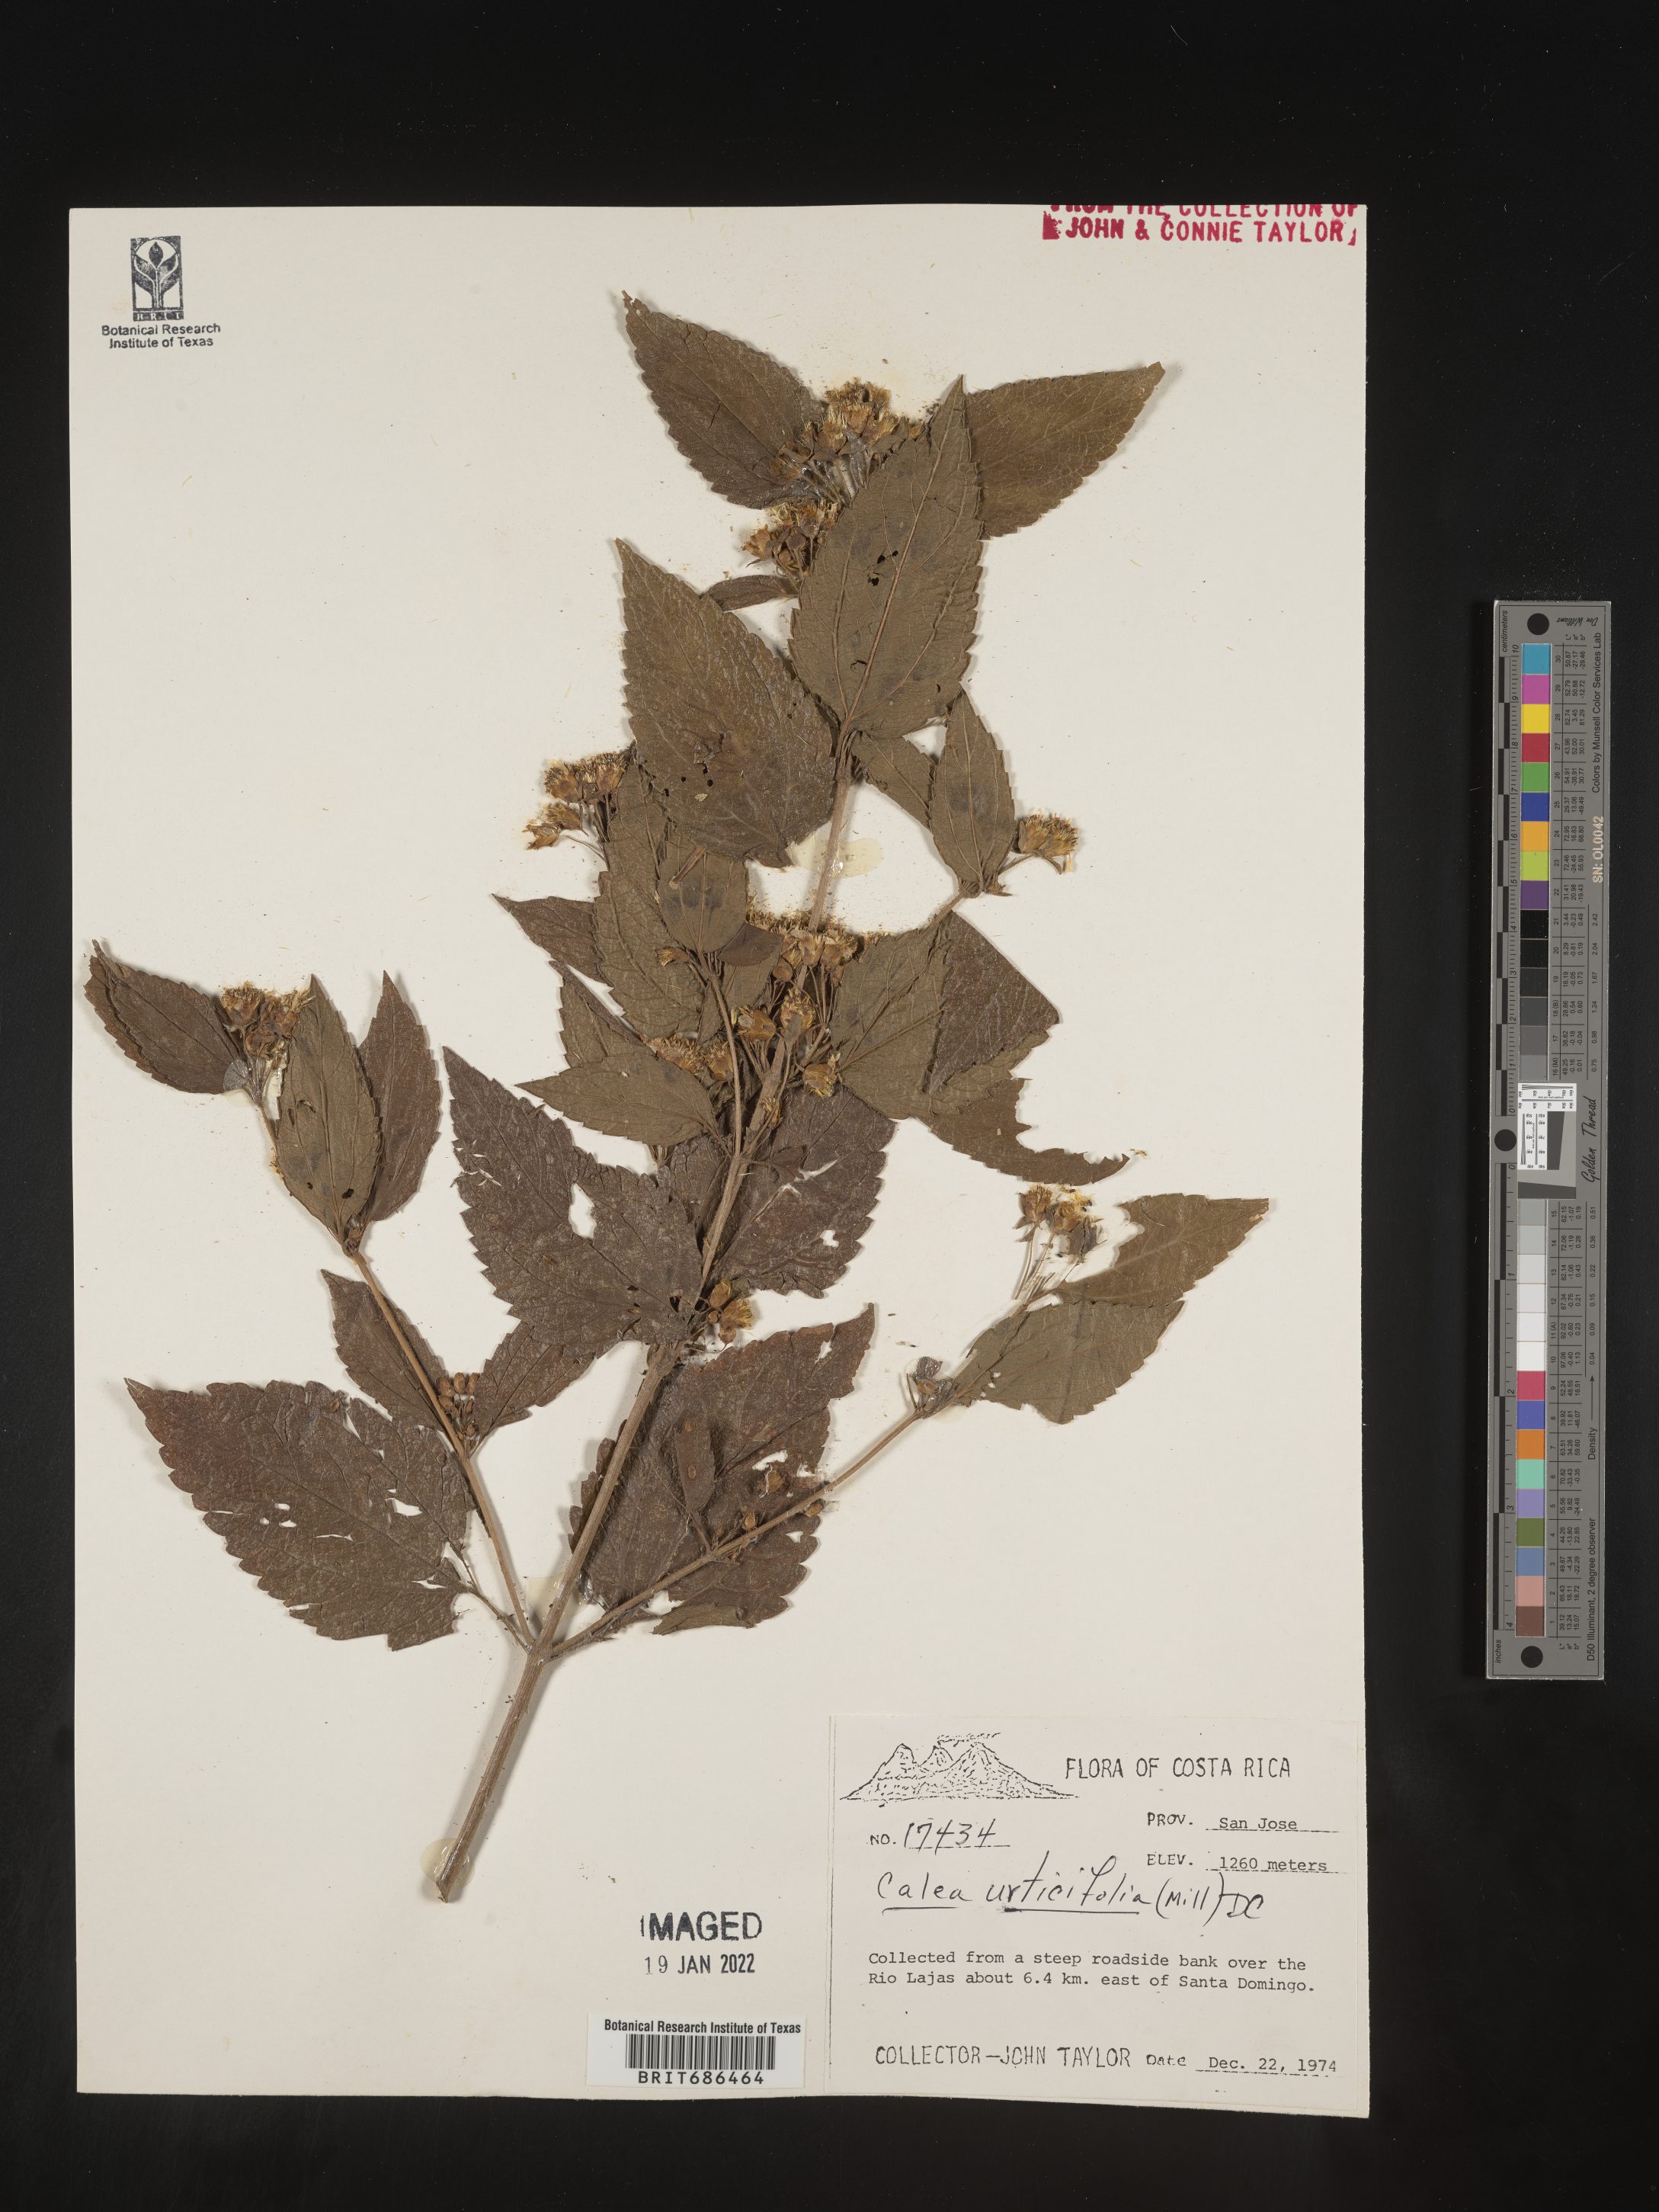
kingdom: Plantae
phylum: Tracheophyta
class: Magnoliopsida
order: Asterales
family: Asteraceae
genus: Calea
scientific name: Calea
